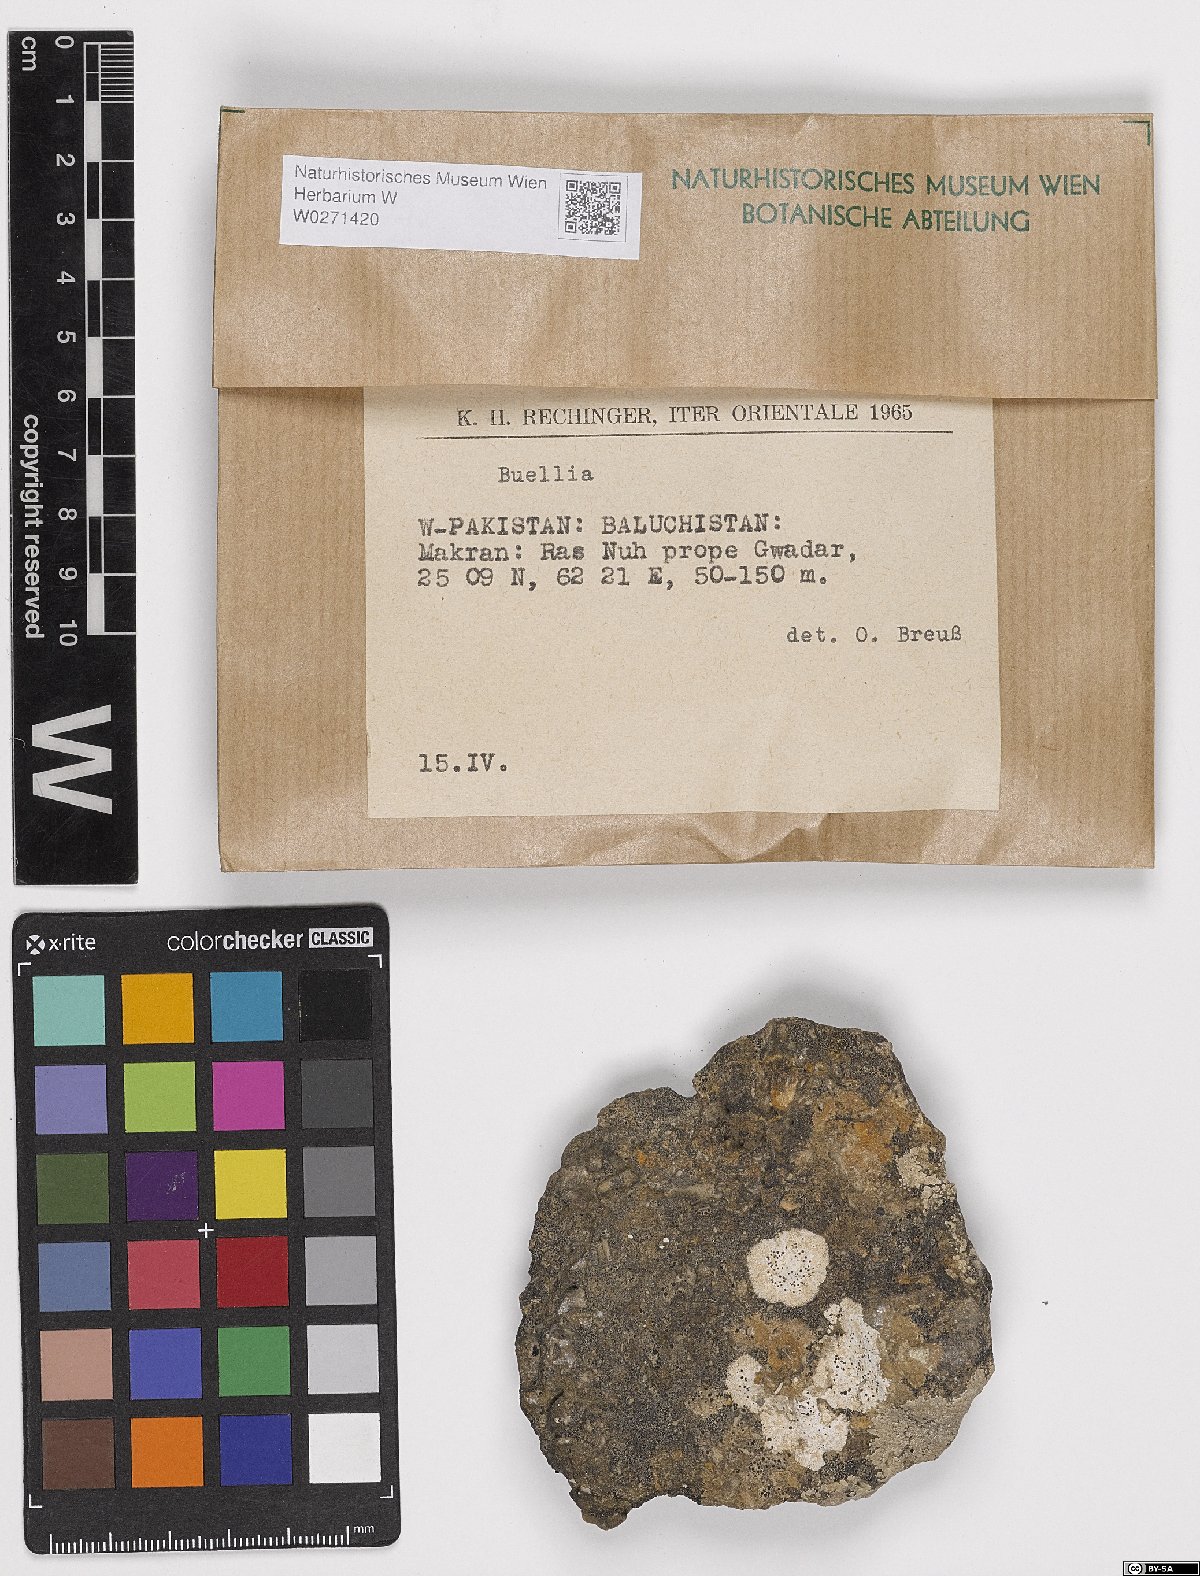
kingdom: Fungi
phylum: Ascomycota
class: Lecanoromycetes
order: Lecanorales
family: Parmeliaceae
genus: Pseudevernia
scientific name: Pseudevernia
